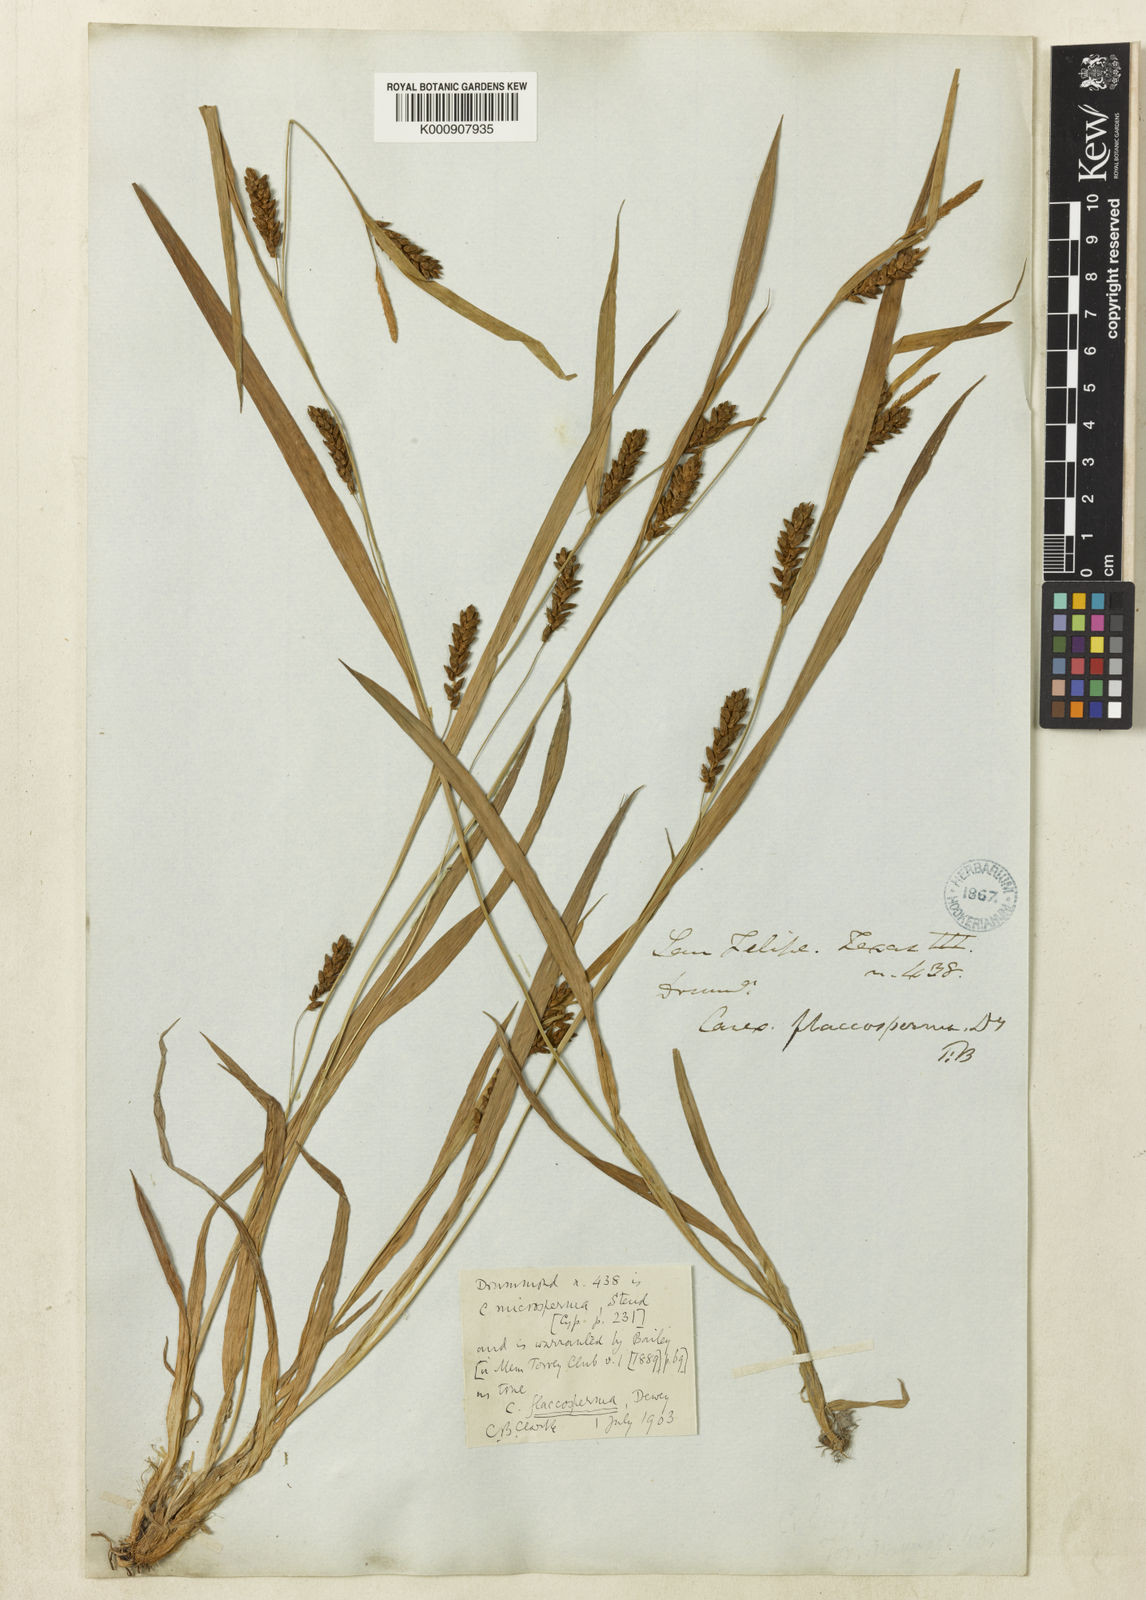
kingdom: Plantae
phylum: Tracheophyta
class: Liliopsida
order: Poales
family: Cyperaceae
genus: Carex
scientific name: Carex flaccosperma
